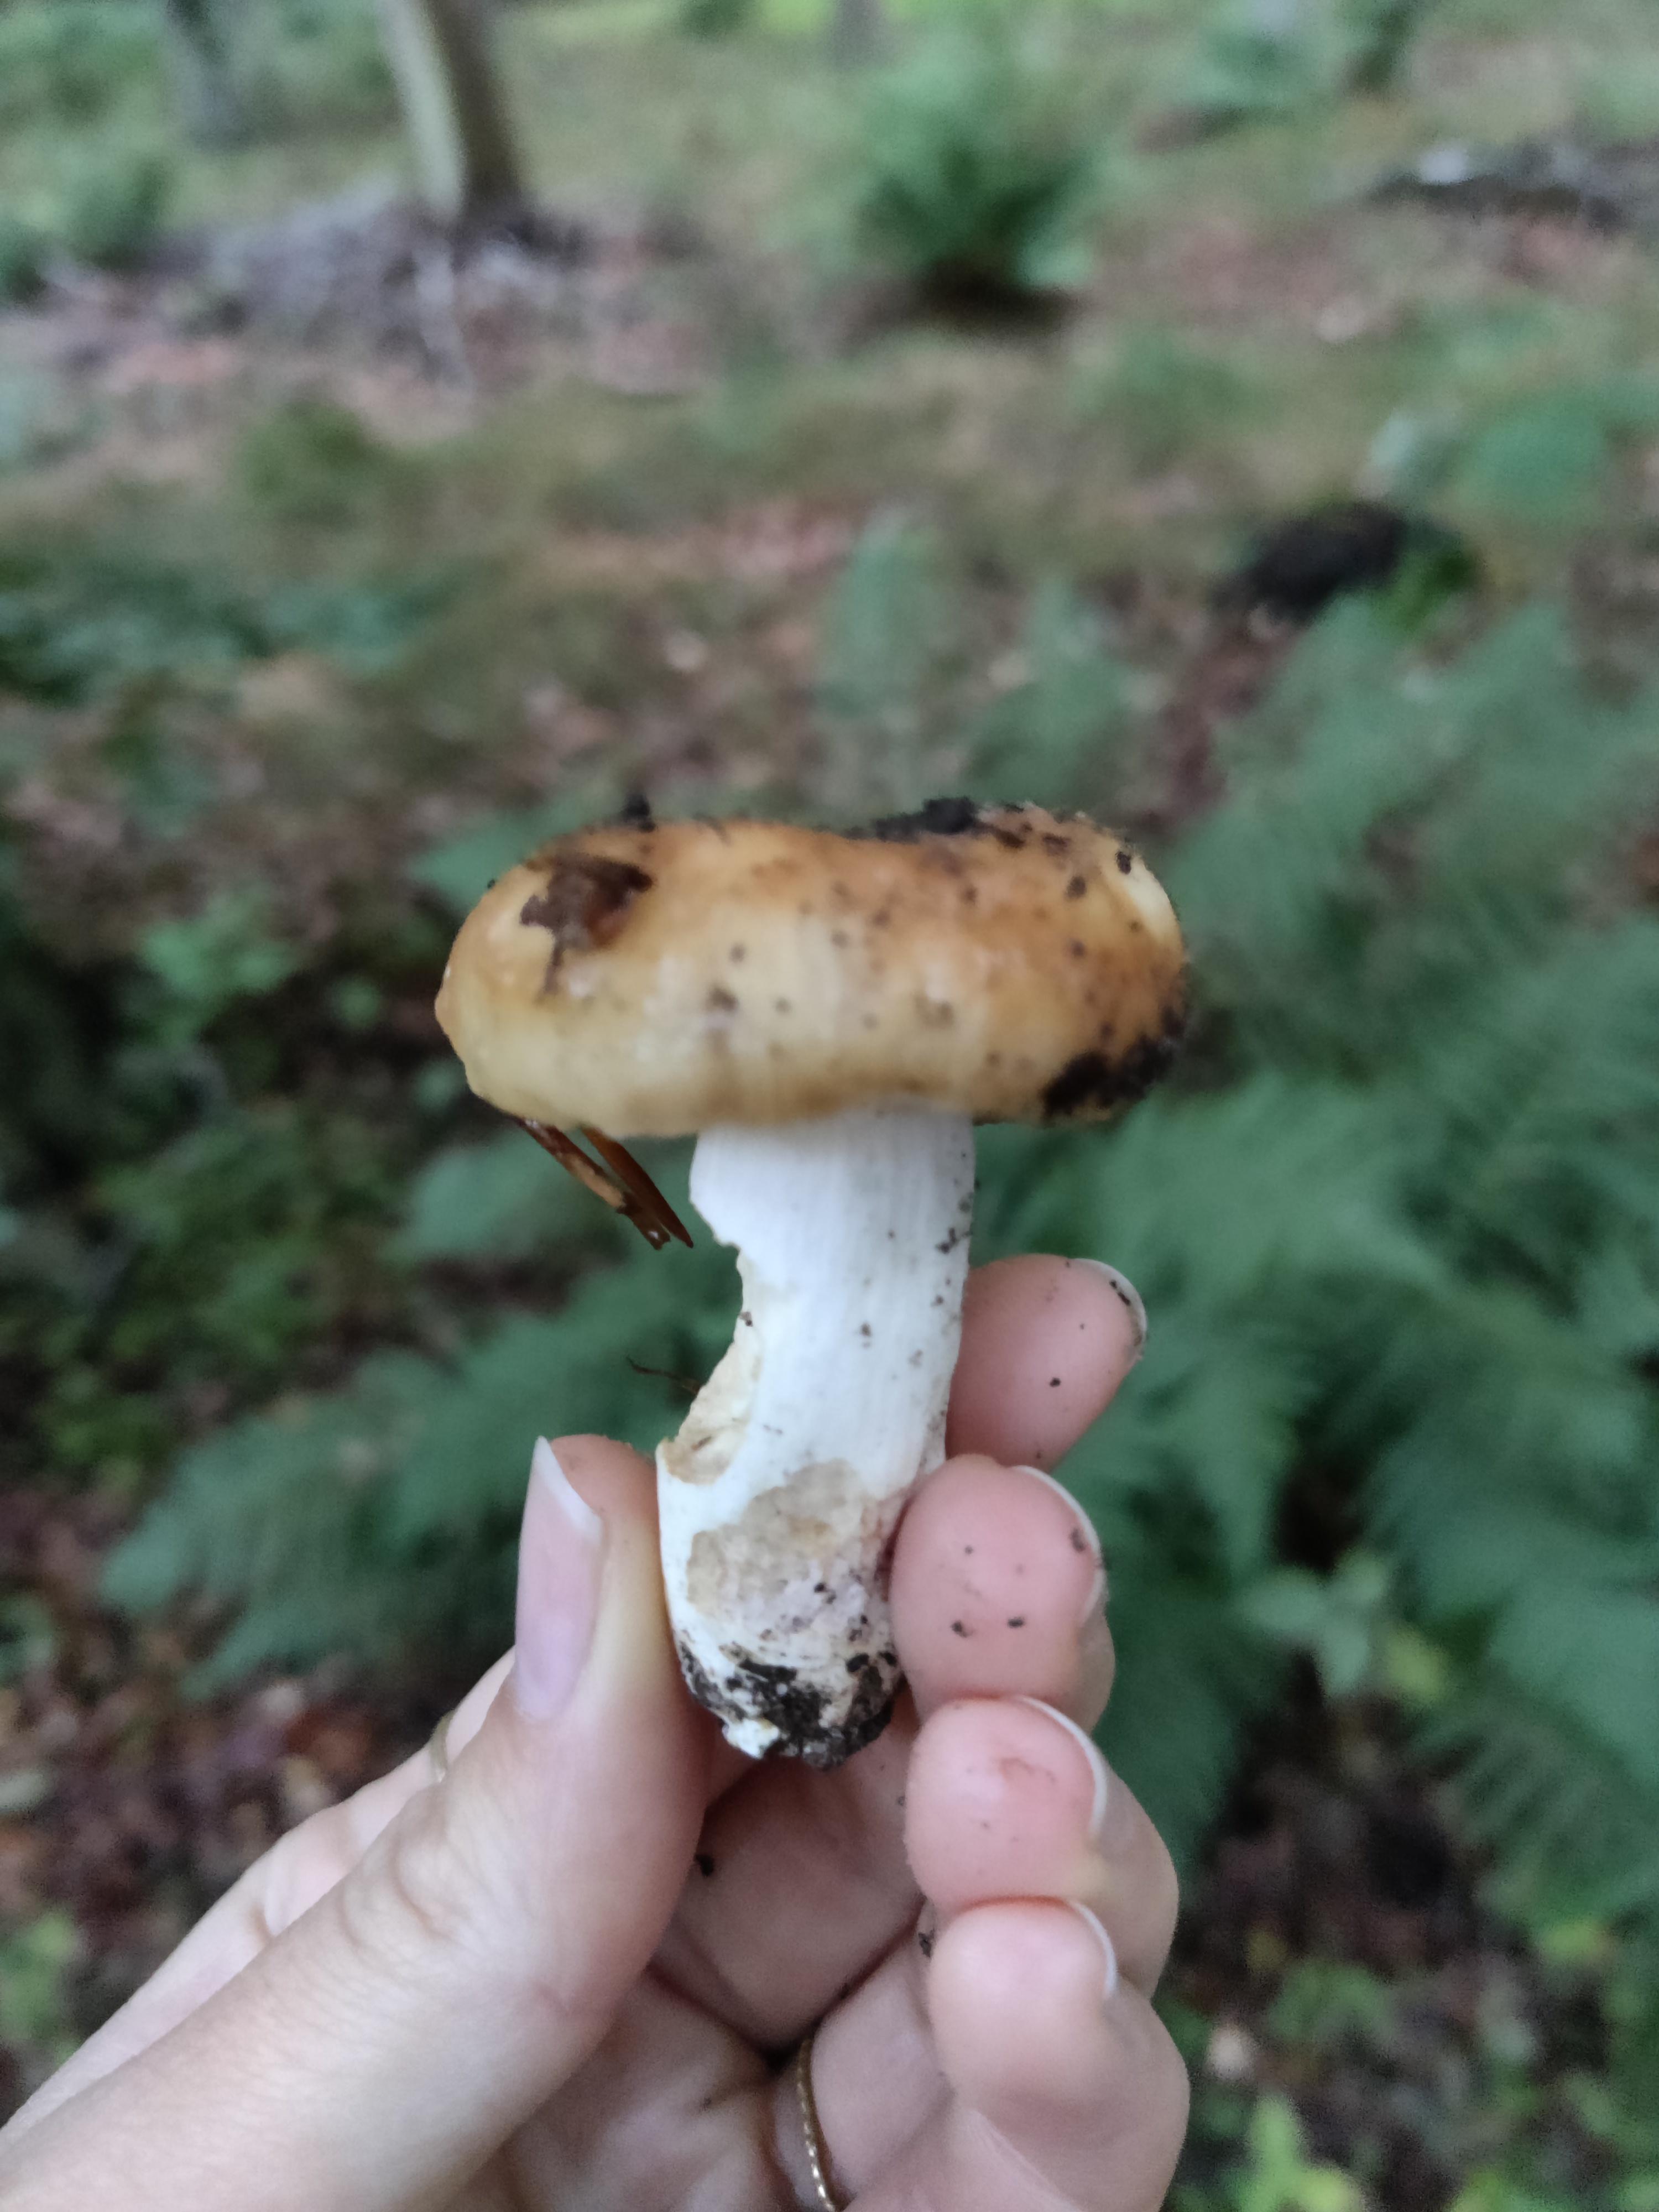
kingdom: Fungi
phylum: Basidiomycota
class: Agaricomycetes
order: Russulales
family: Russulaceae
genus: Russula
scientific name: Russula
